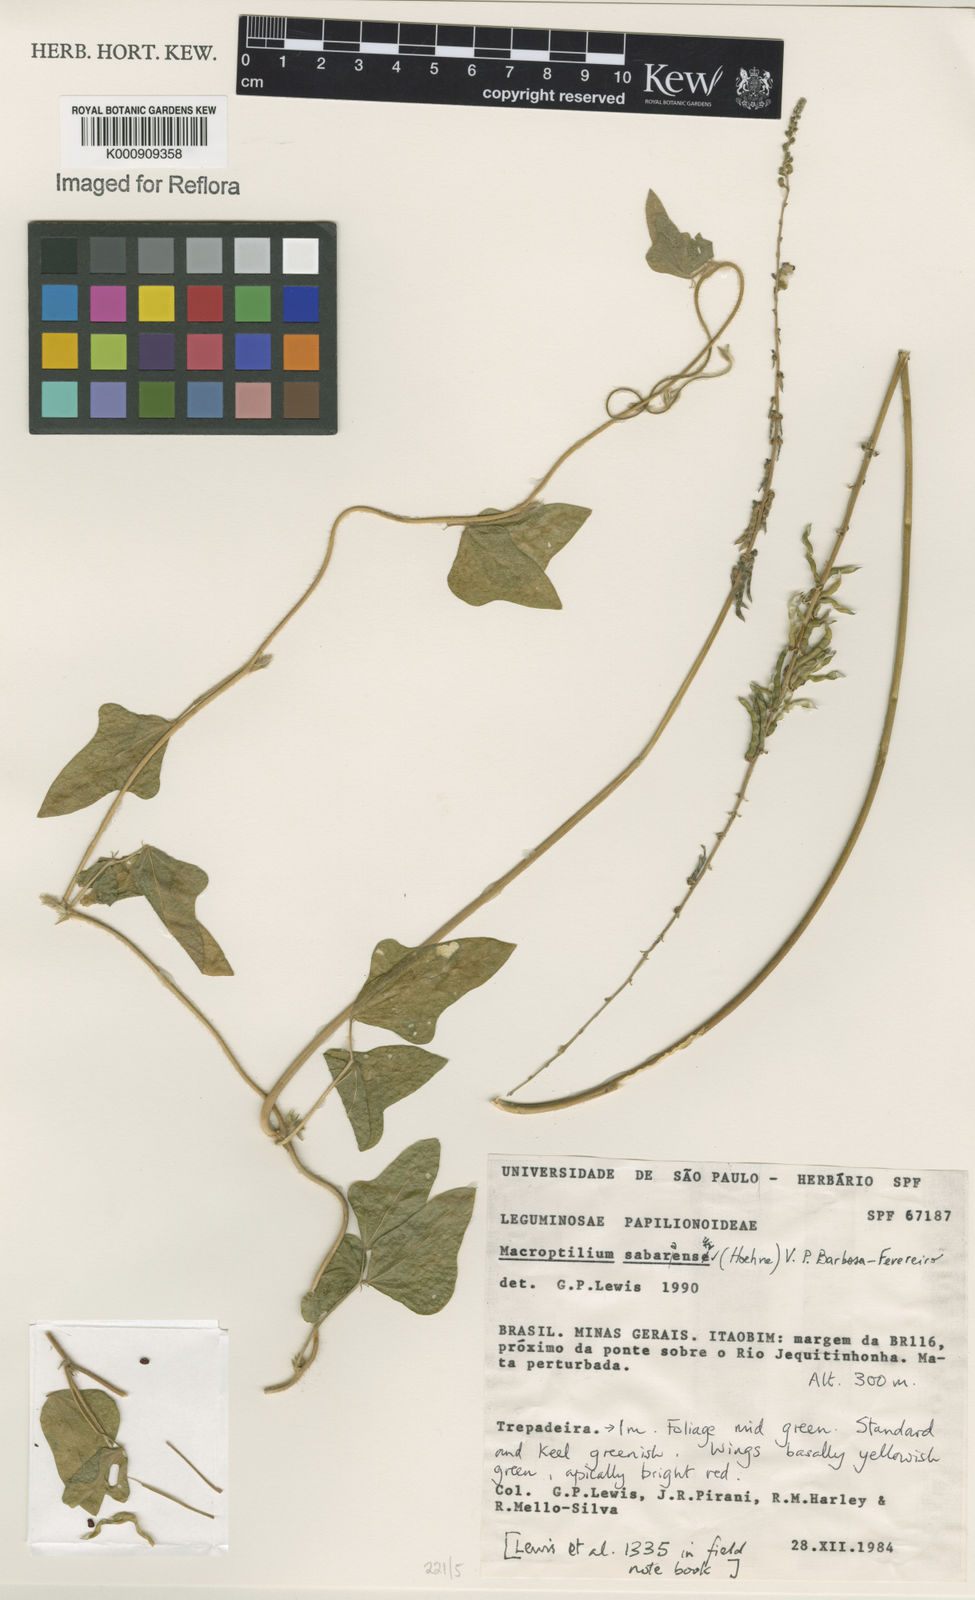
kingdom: Plantae
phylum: Tracheophyta
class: Magnoliopsida
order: Fabales
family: Fabaceae
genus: Macroptilium
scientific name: Macroptilium sabaraense
